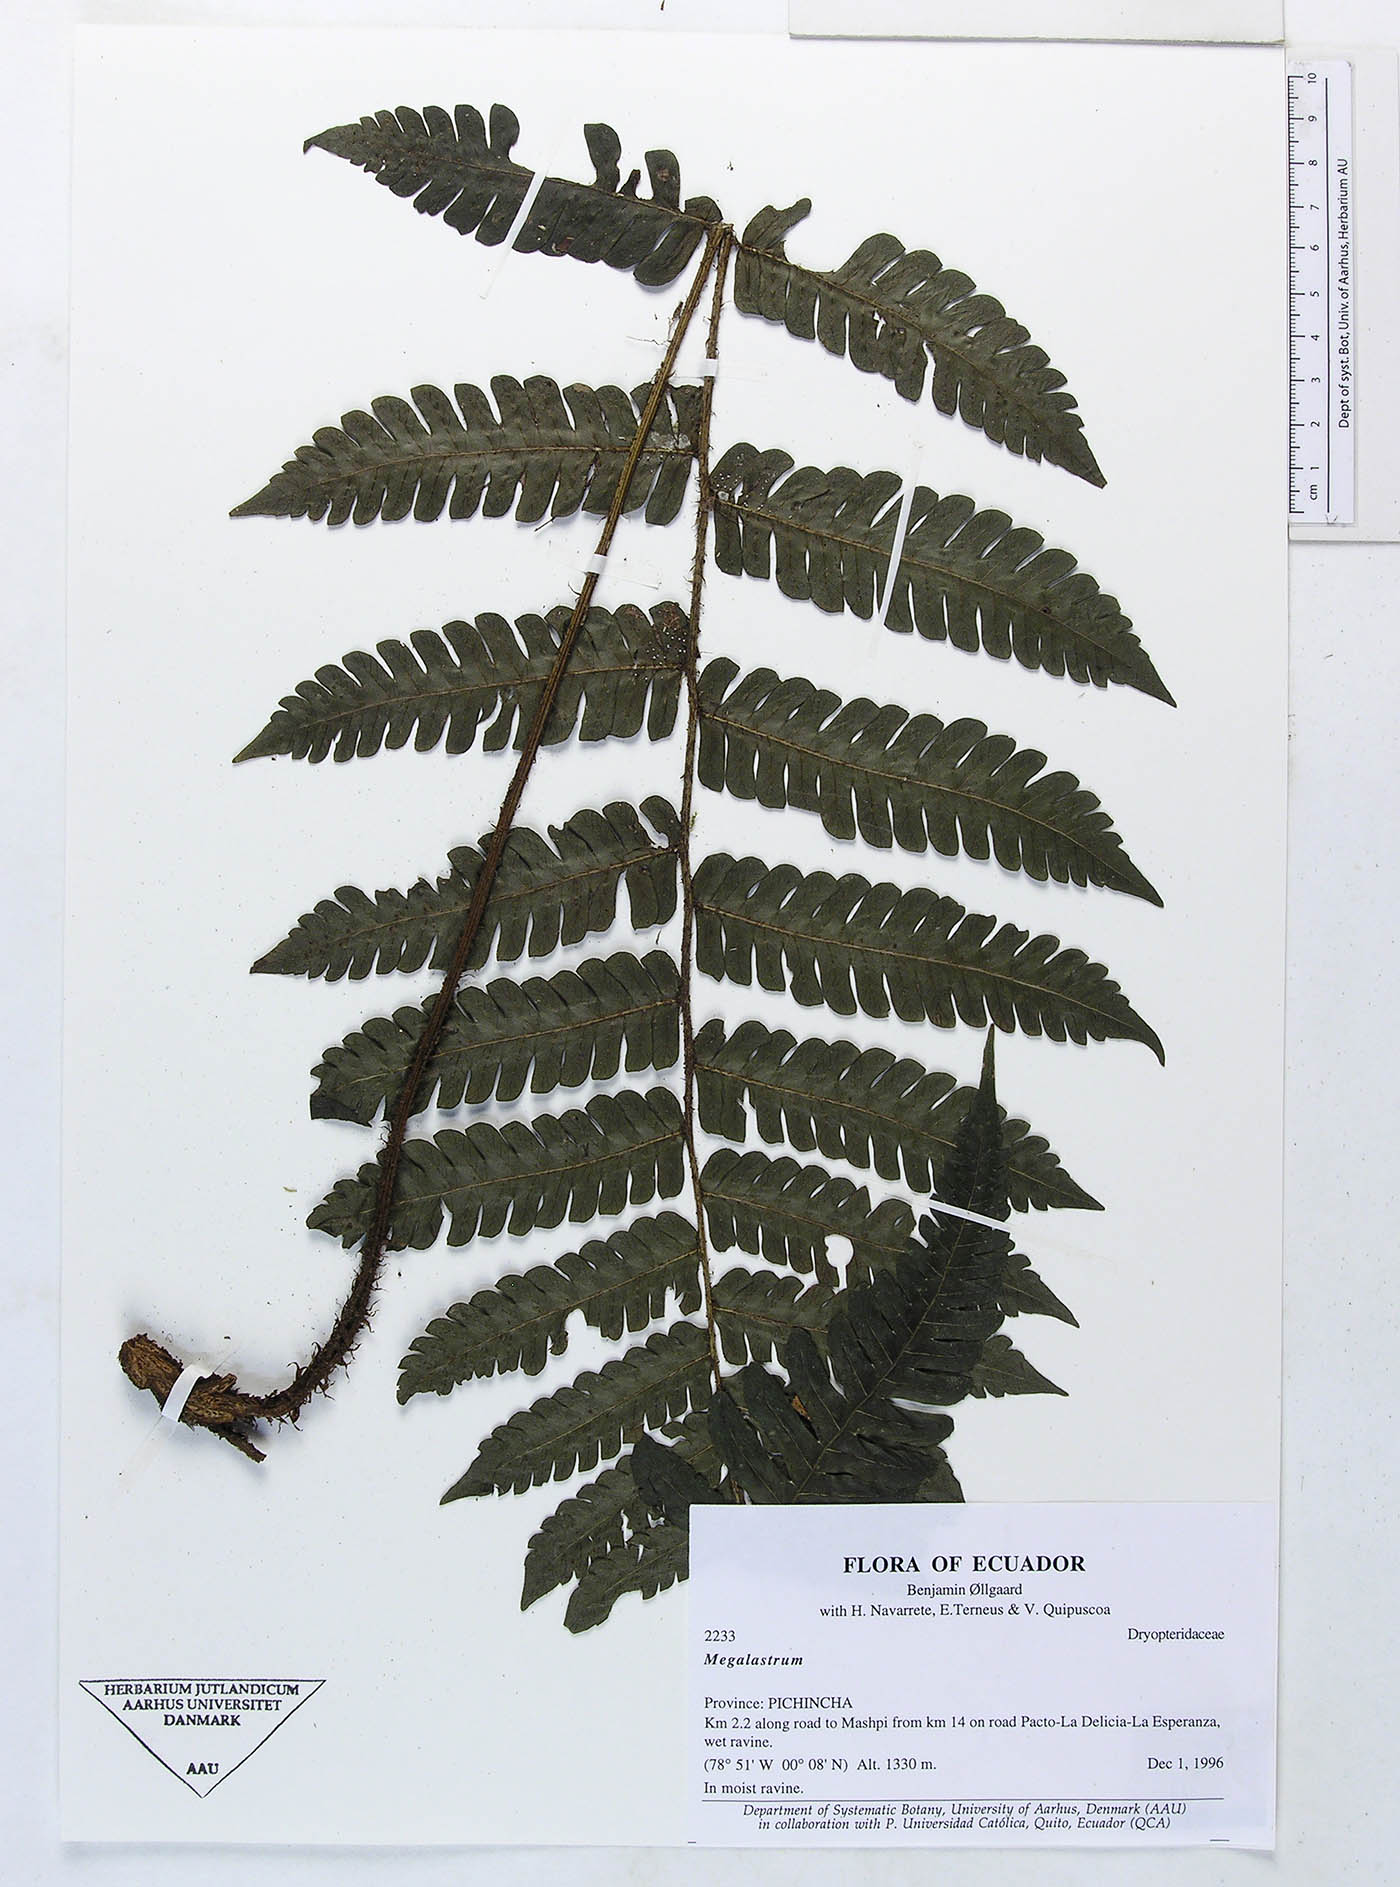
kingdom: Plantae
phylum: Tracheophyta
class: Polypodiopsida
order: Polypodiales
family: Dryopteridaceae
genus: Megalastrum
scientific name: Megalastrum ctenitoides
